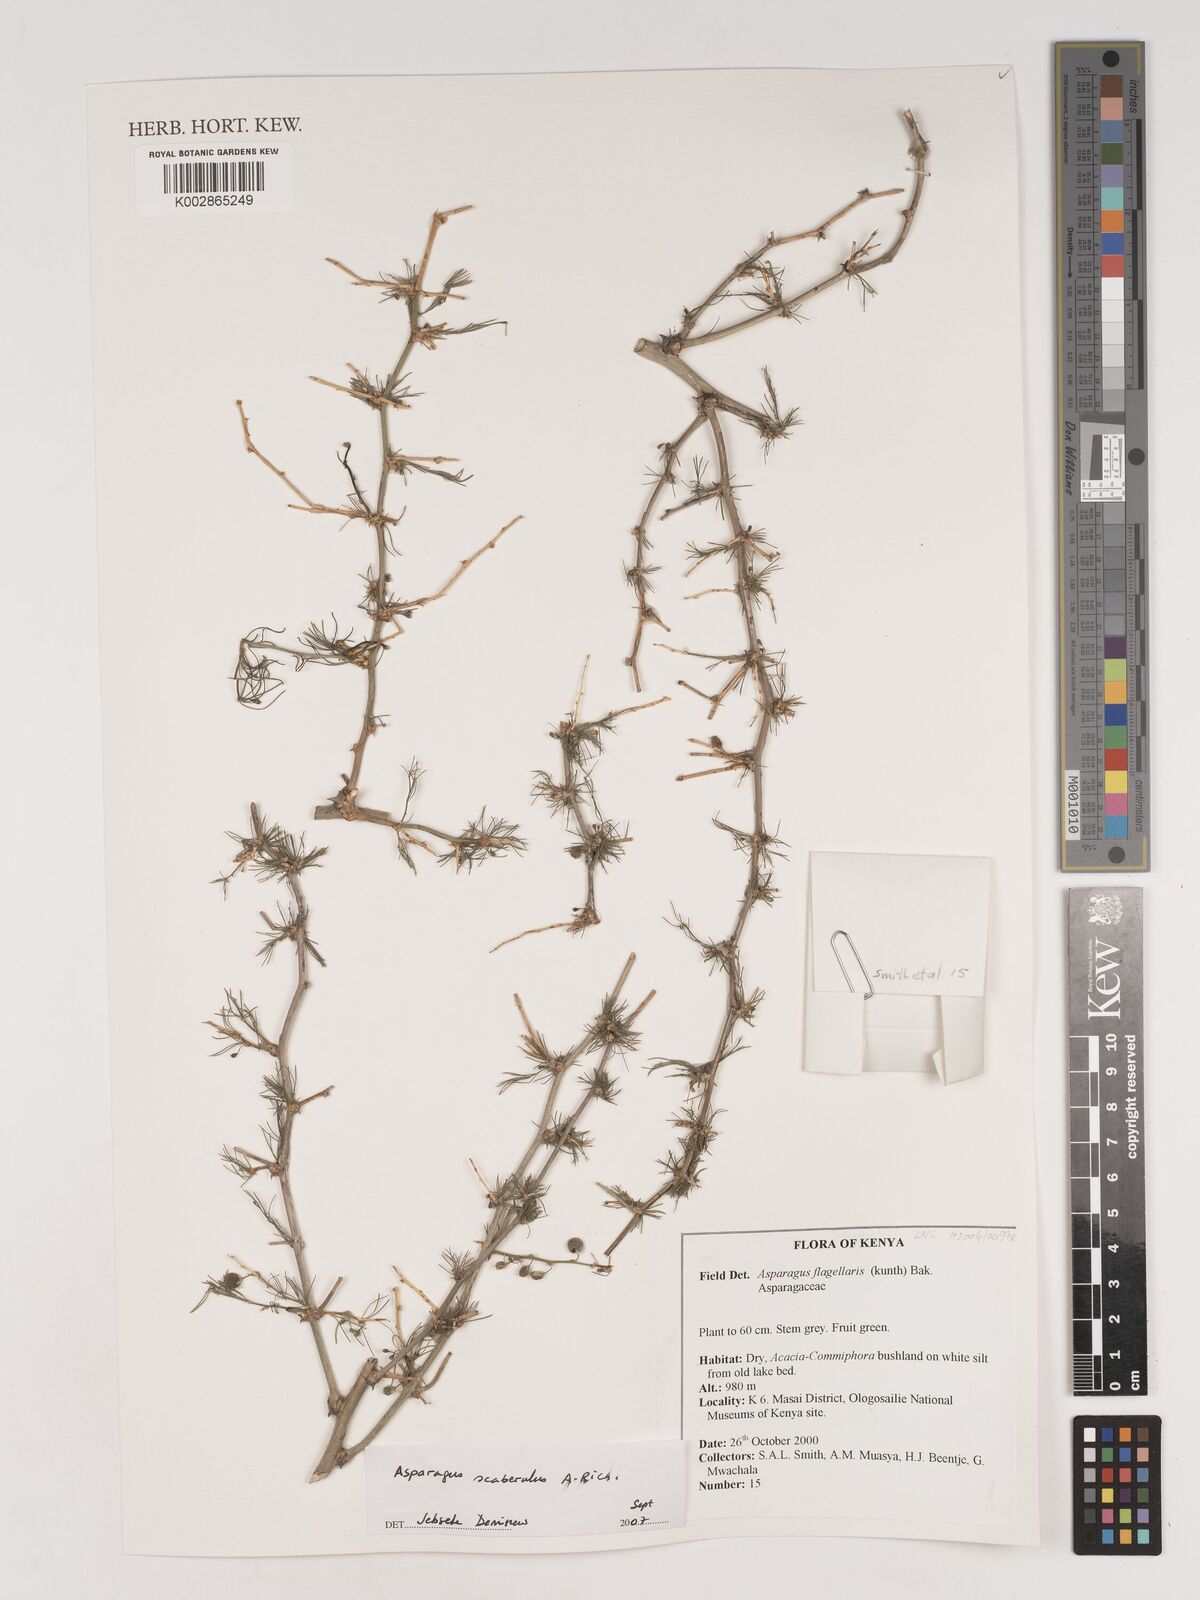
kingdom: Plantae
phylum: Tracheophyta
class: Liliopsida
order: Asparagales
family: Asparagaceae
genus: Asparagus
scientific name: Asparagus scaberulus
